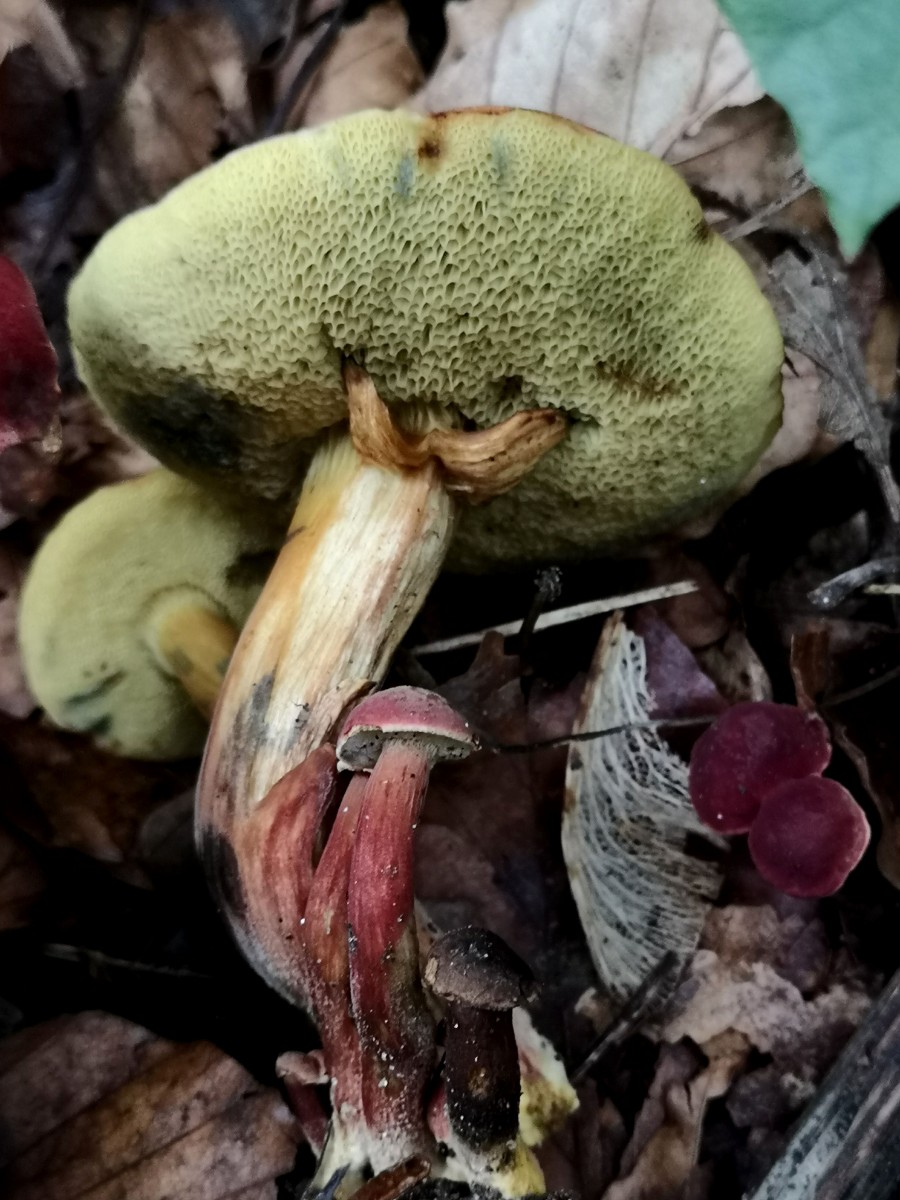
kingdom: Fungi
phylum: Basidiomycota
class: Agaricomycetes
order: Boletales
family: Boletaceae
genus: Hortiboletus
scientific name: Hortiboletus rubellus
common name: blodrød rørhat
